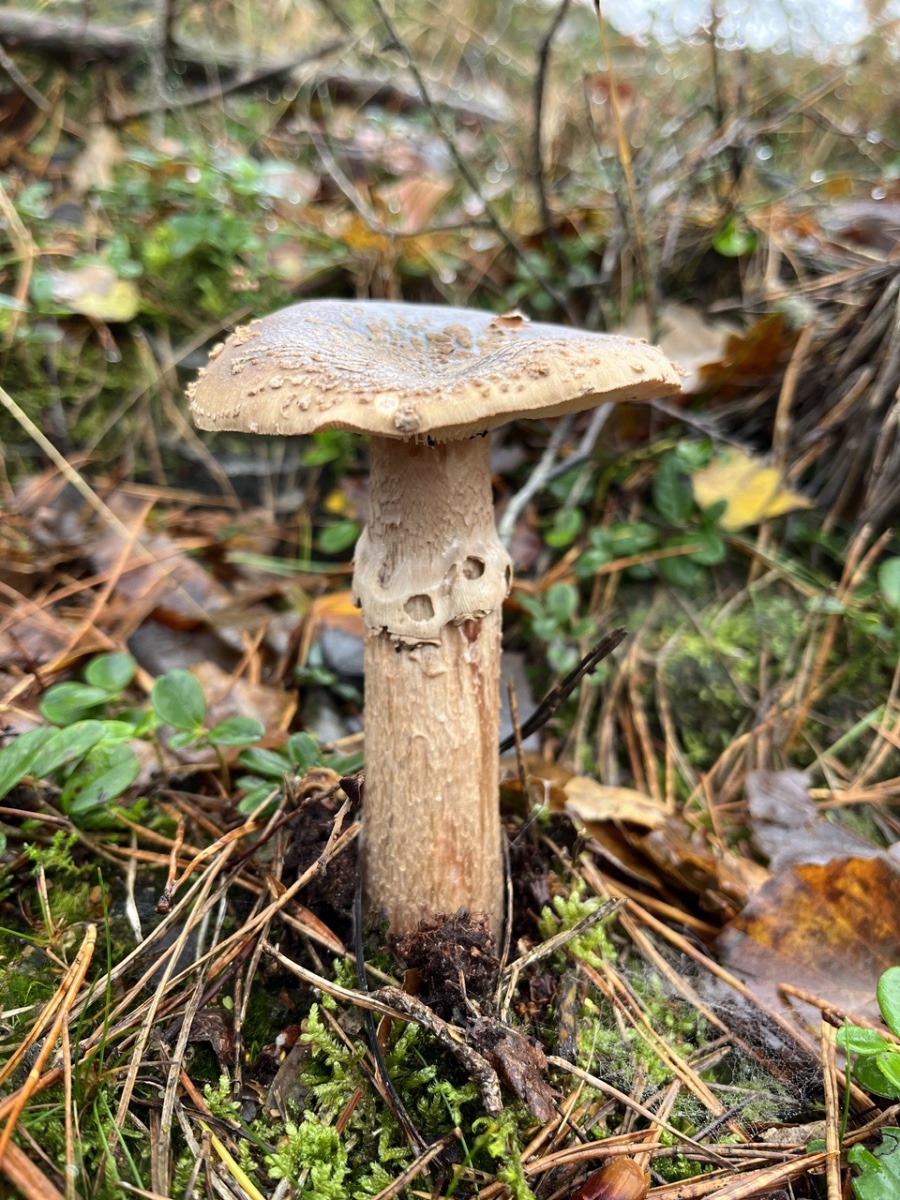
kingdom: Fungi
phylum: Basidiomycota
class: Agaricomycetes
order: Agaricales
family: Amanitaceae
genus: Amanita
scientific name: Amanita rubescens
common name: rødmende fluesvamp
